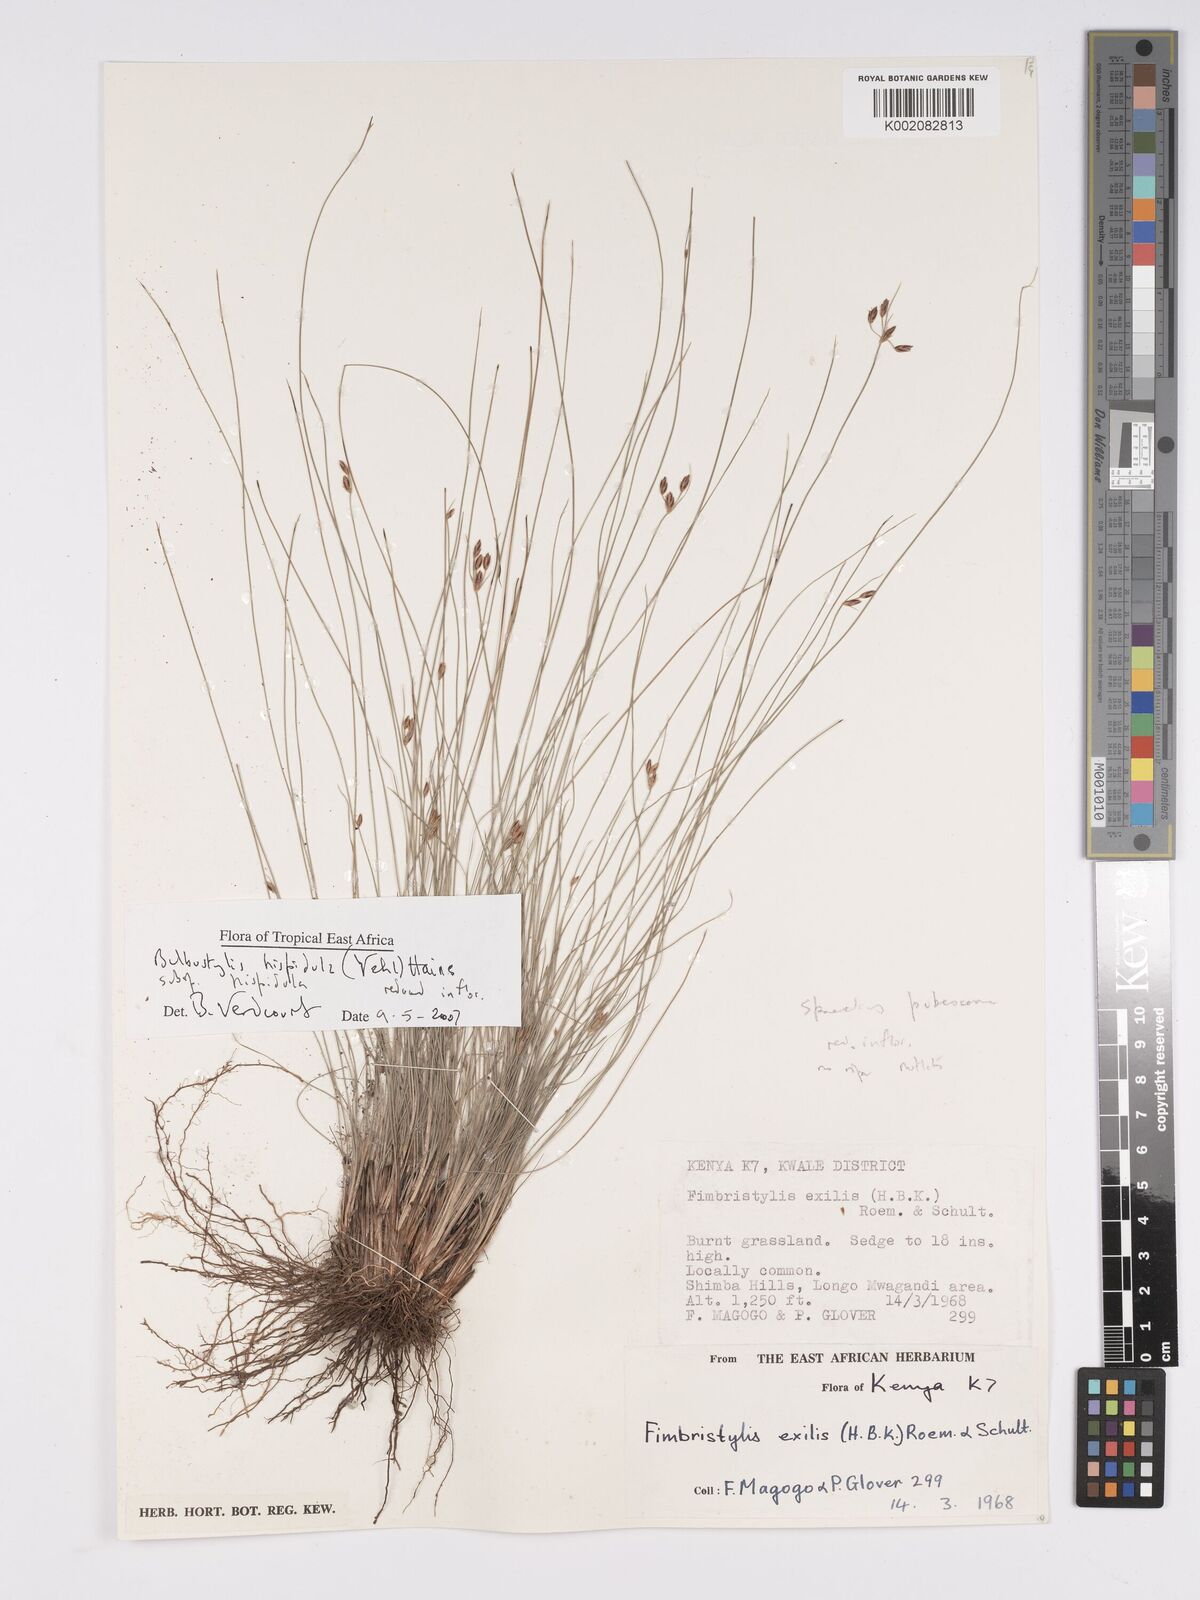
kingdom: Plantae
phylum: Tracheophyta
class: Liliopsida
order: Poales
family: Cyperaceae
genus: Bulbostylis
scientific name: Bulbostylis hispidula
